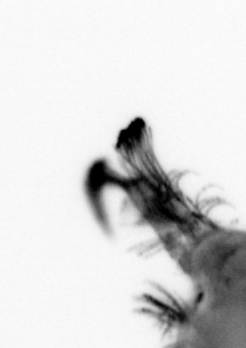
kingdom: Animalia
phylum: Annelida
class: Polychaeta
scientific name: Polychaeta
